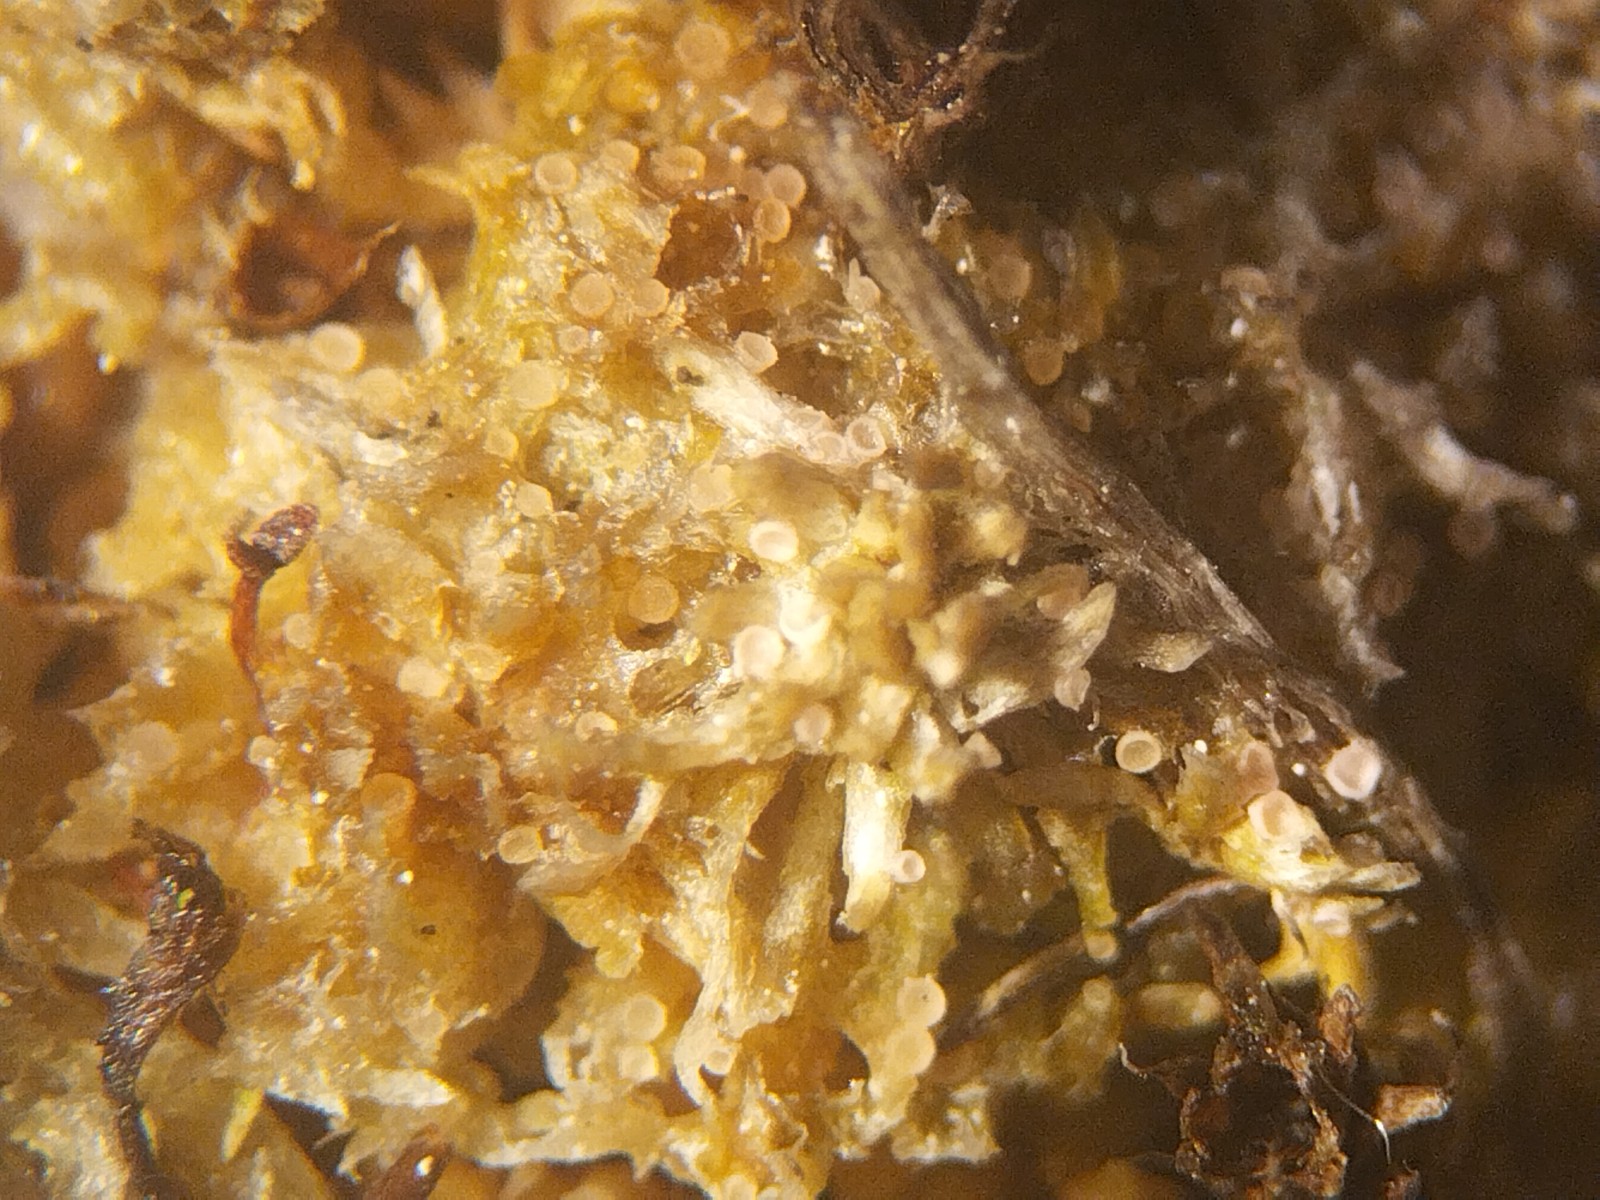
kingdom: Fungi
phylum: Ascomycota
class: Lecanoromycetes
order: Ostropales
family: Stictidaceae
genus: Absconditella
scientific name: Absconditella sphagnorum
